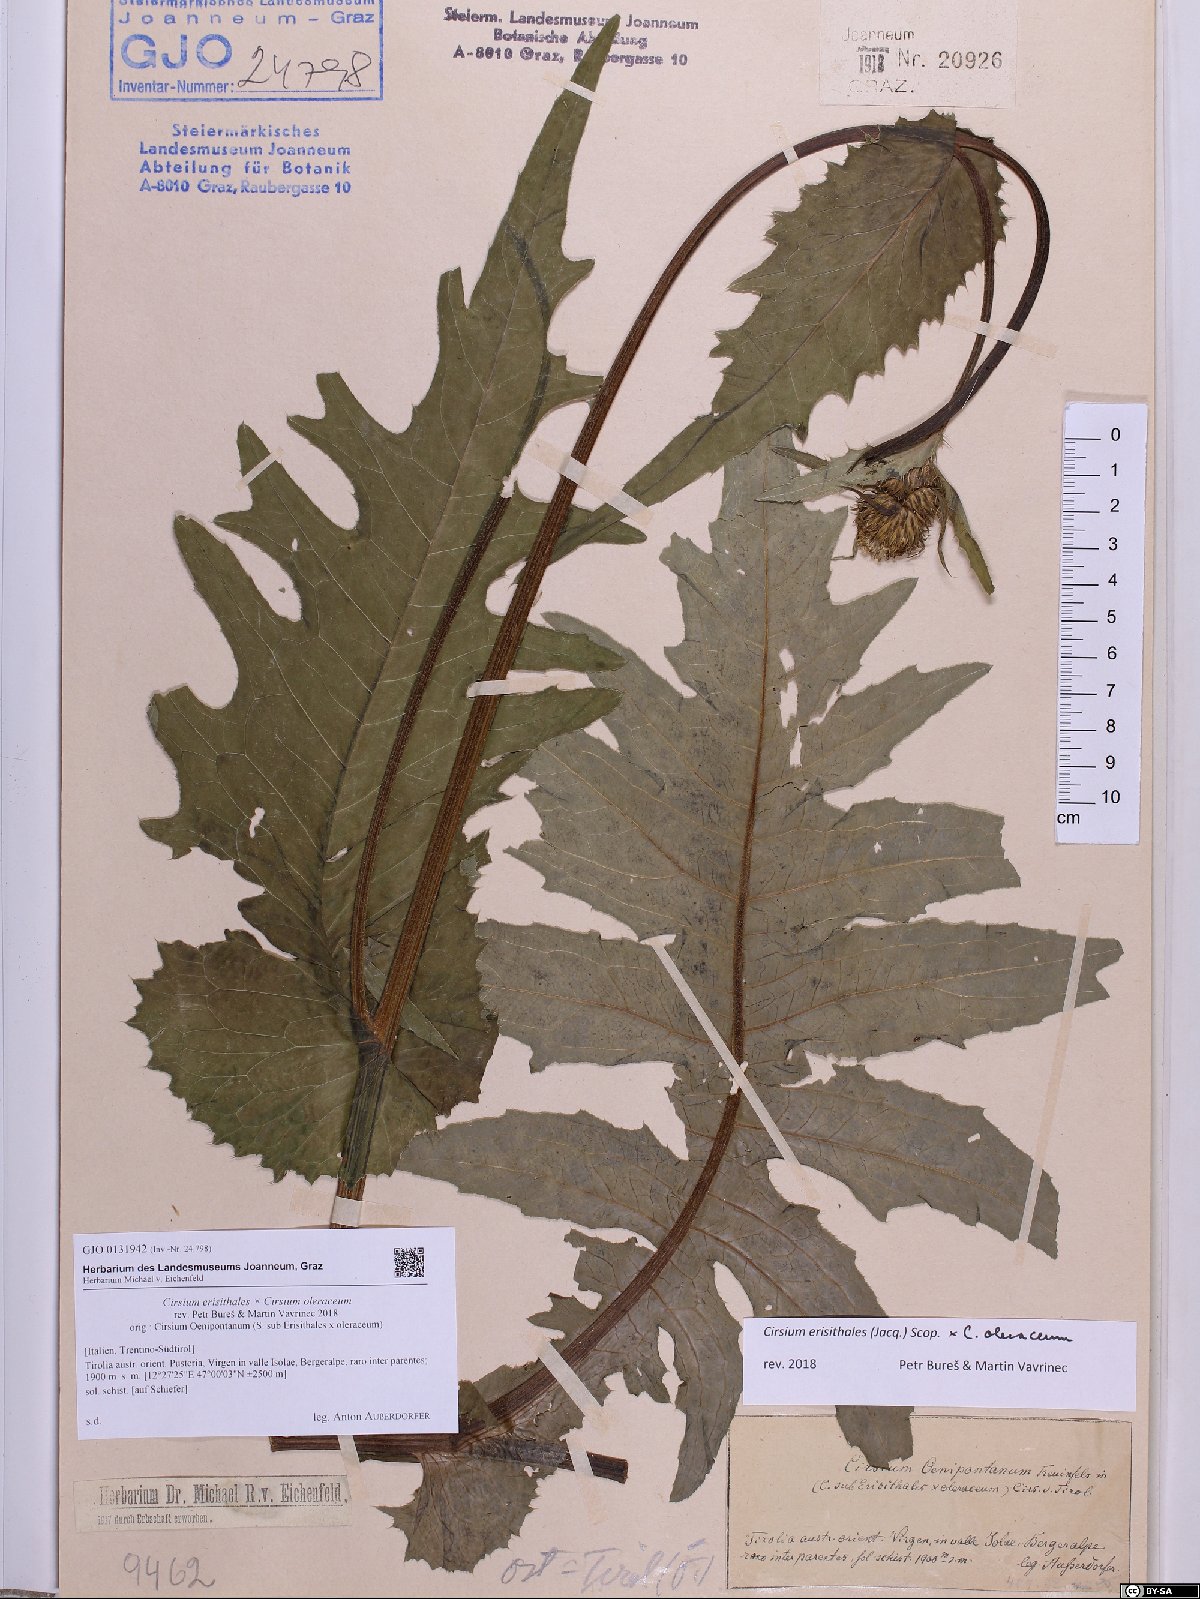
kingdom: Plantae
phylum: Tracheophyta
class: Magnoliopsida
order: Asterales
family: Asteraceae
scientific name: Asteraceae
